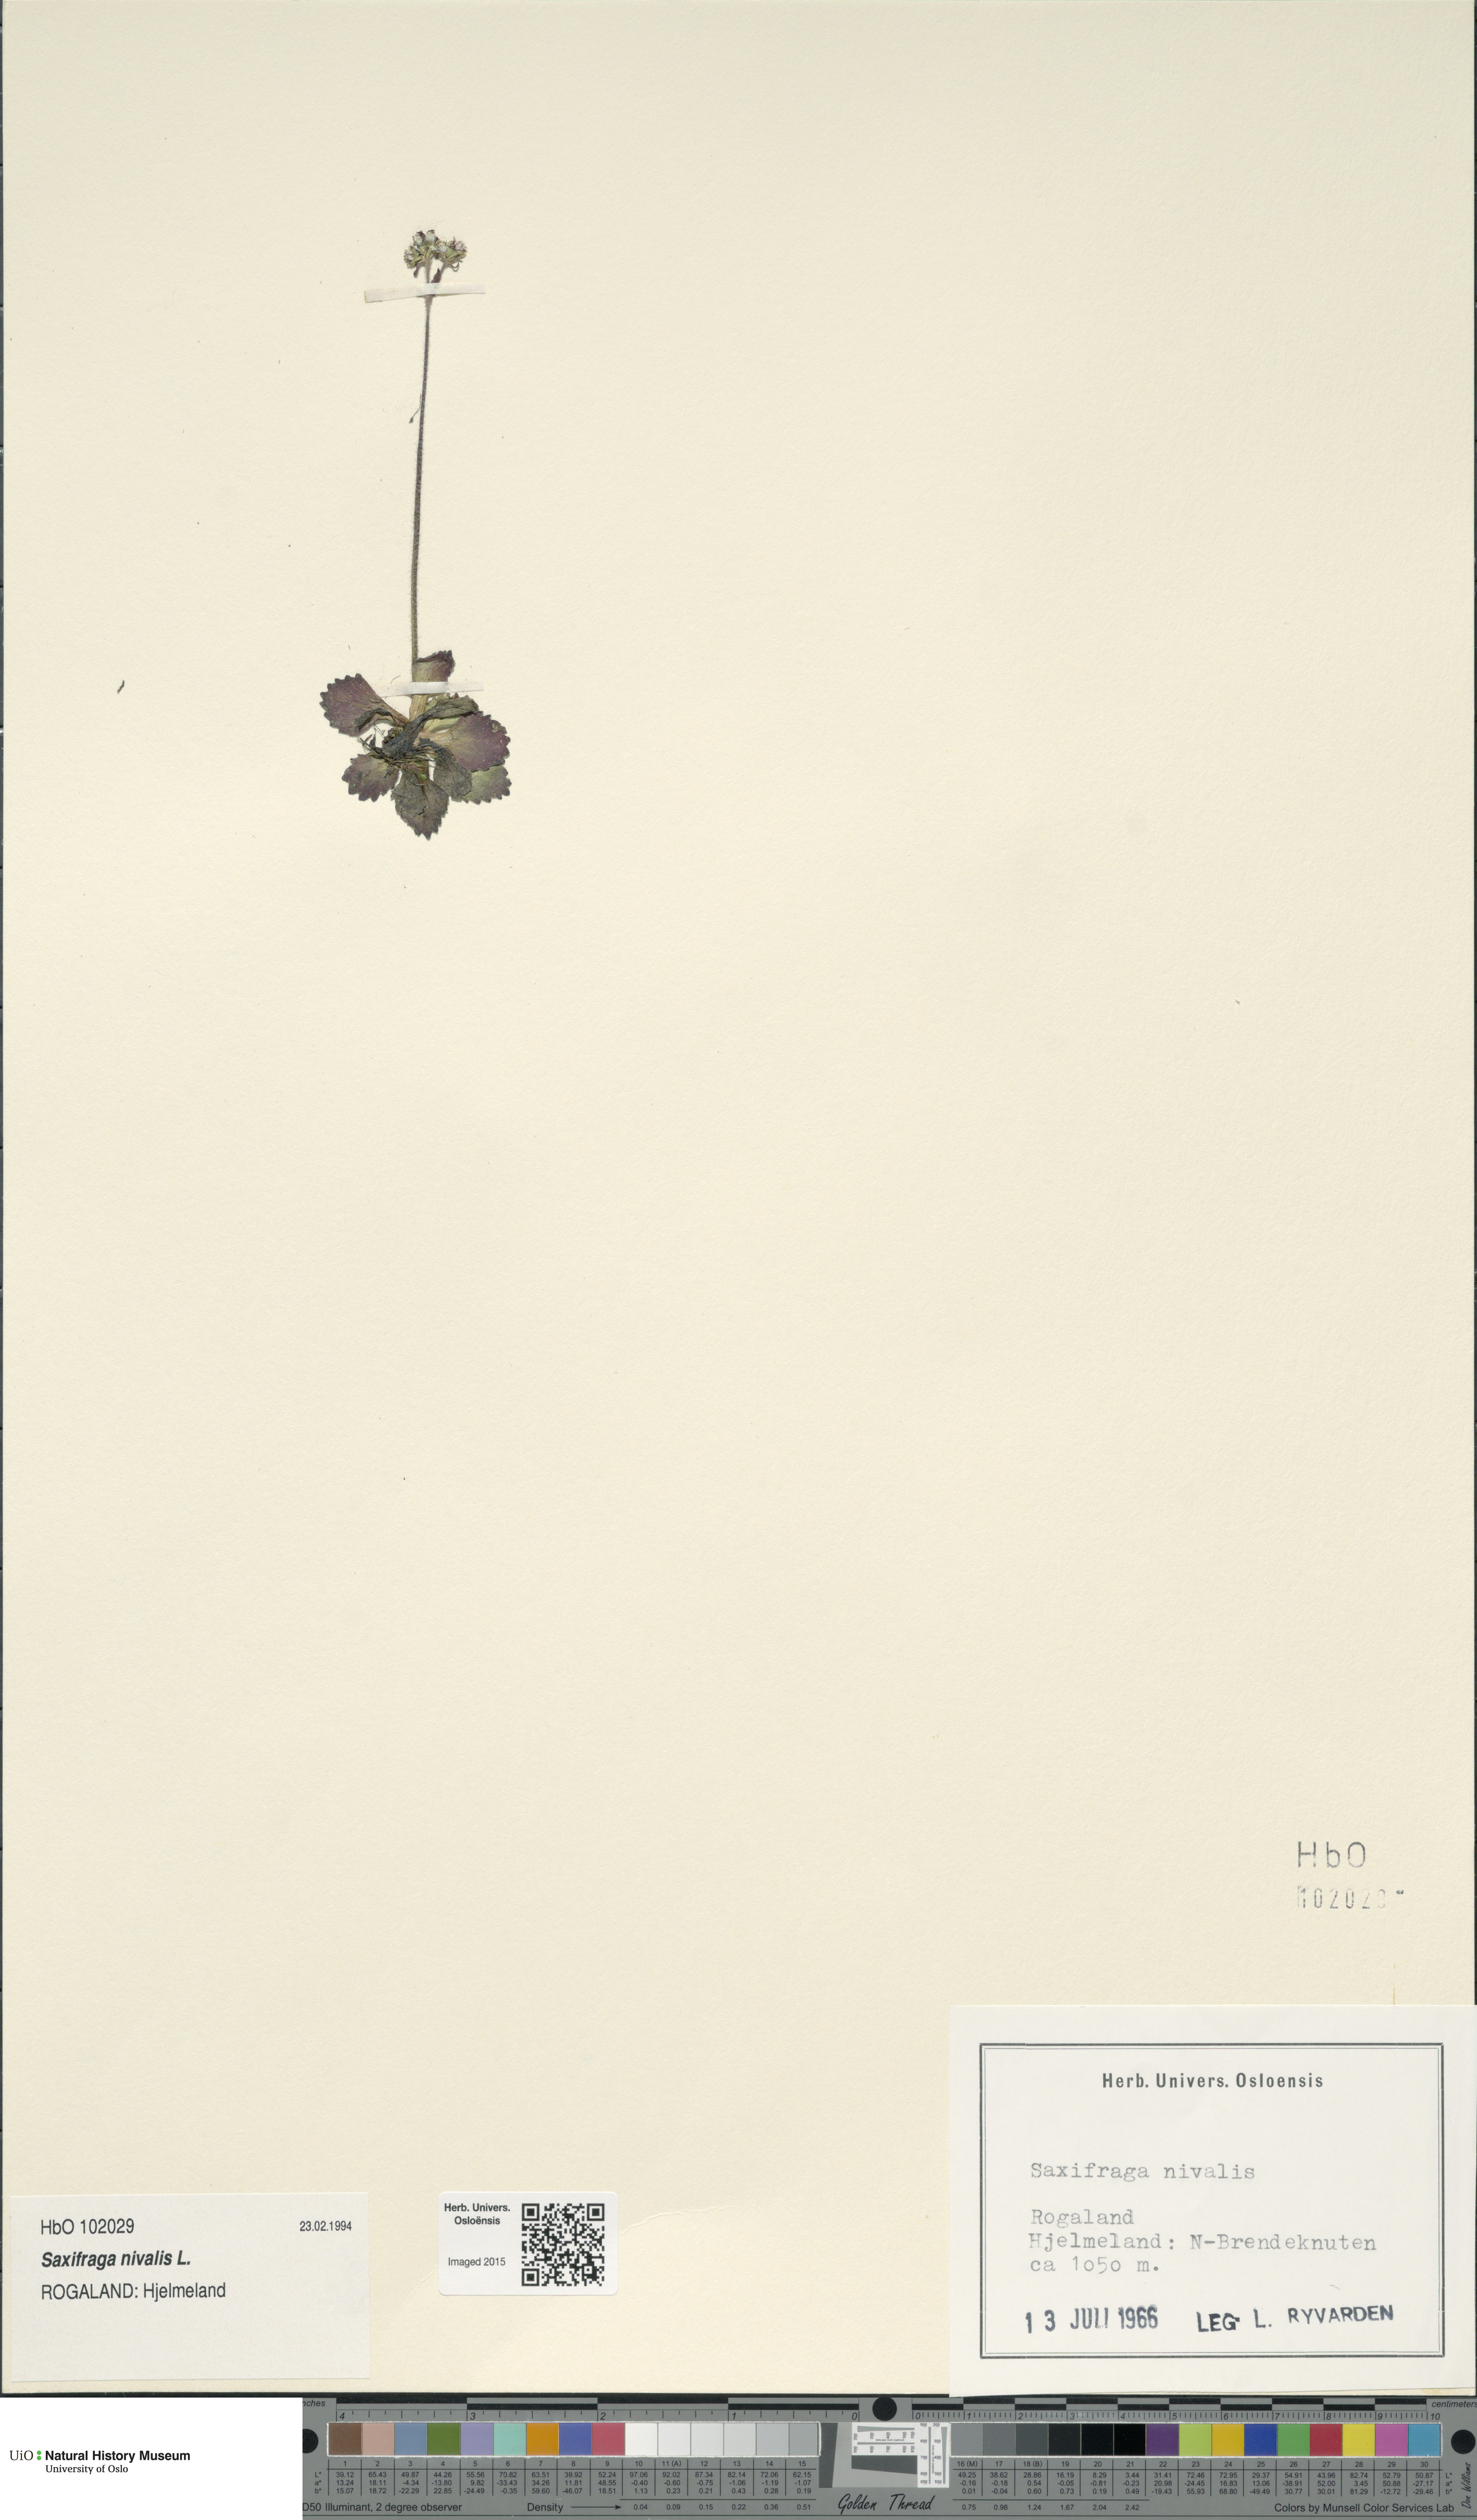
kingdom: Plantae
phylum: Tracheophyta
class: Magnoliopsida
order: Saxifragales
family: Saxifragaceae
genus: Micranthes
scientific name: Micranthes nivalis
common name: Alpine saxifrage
